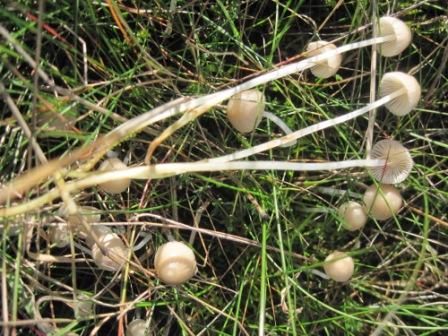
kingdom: Fungi
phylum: Basidiomycota
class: Agaricomycetes
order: Agaricales
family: Mycenaceae
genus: Mycena
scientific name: Mycena epipterygia
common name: gulstokket huesvamp
